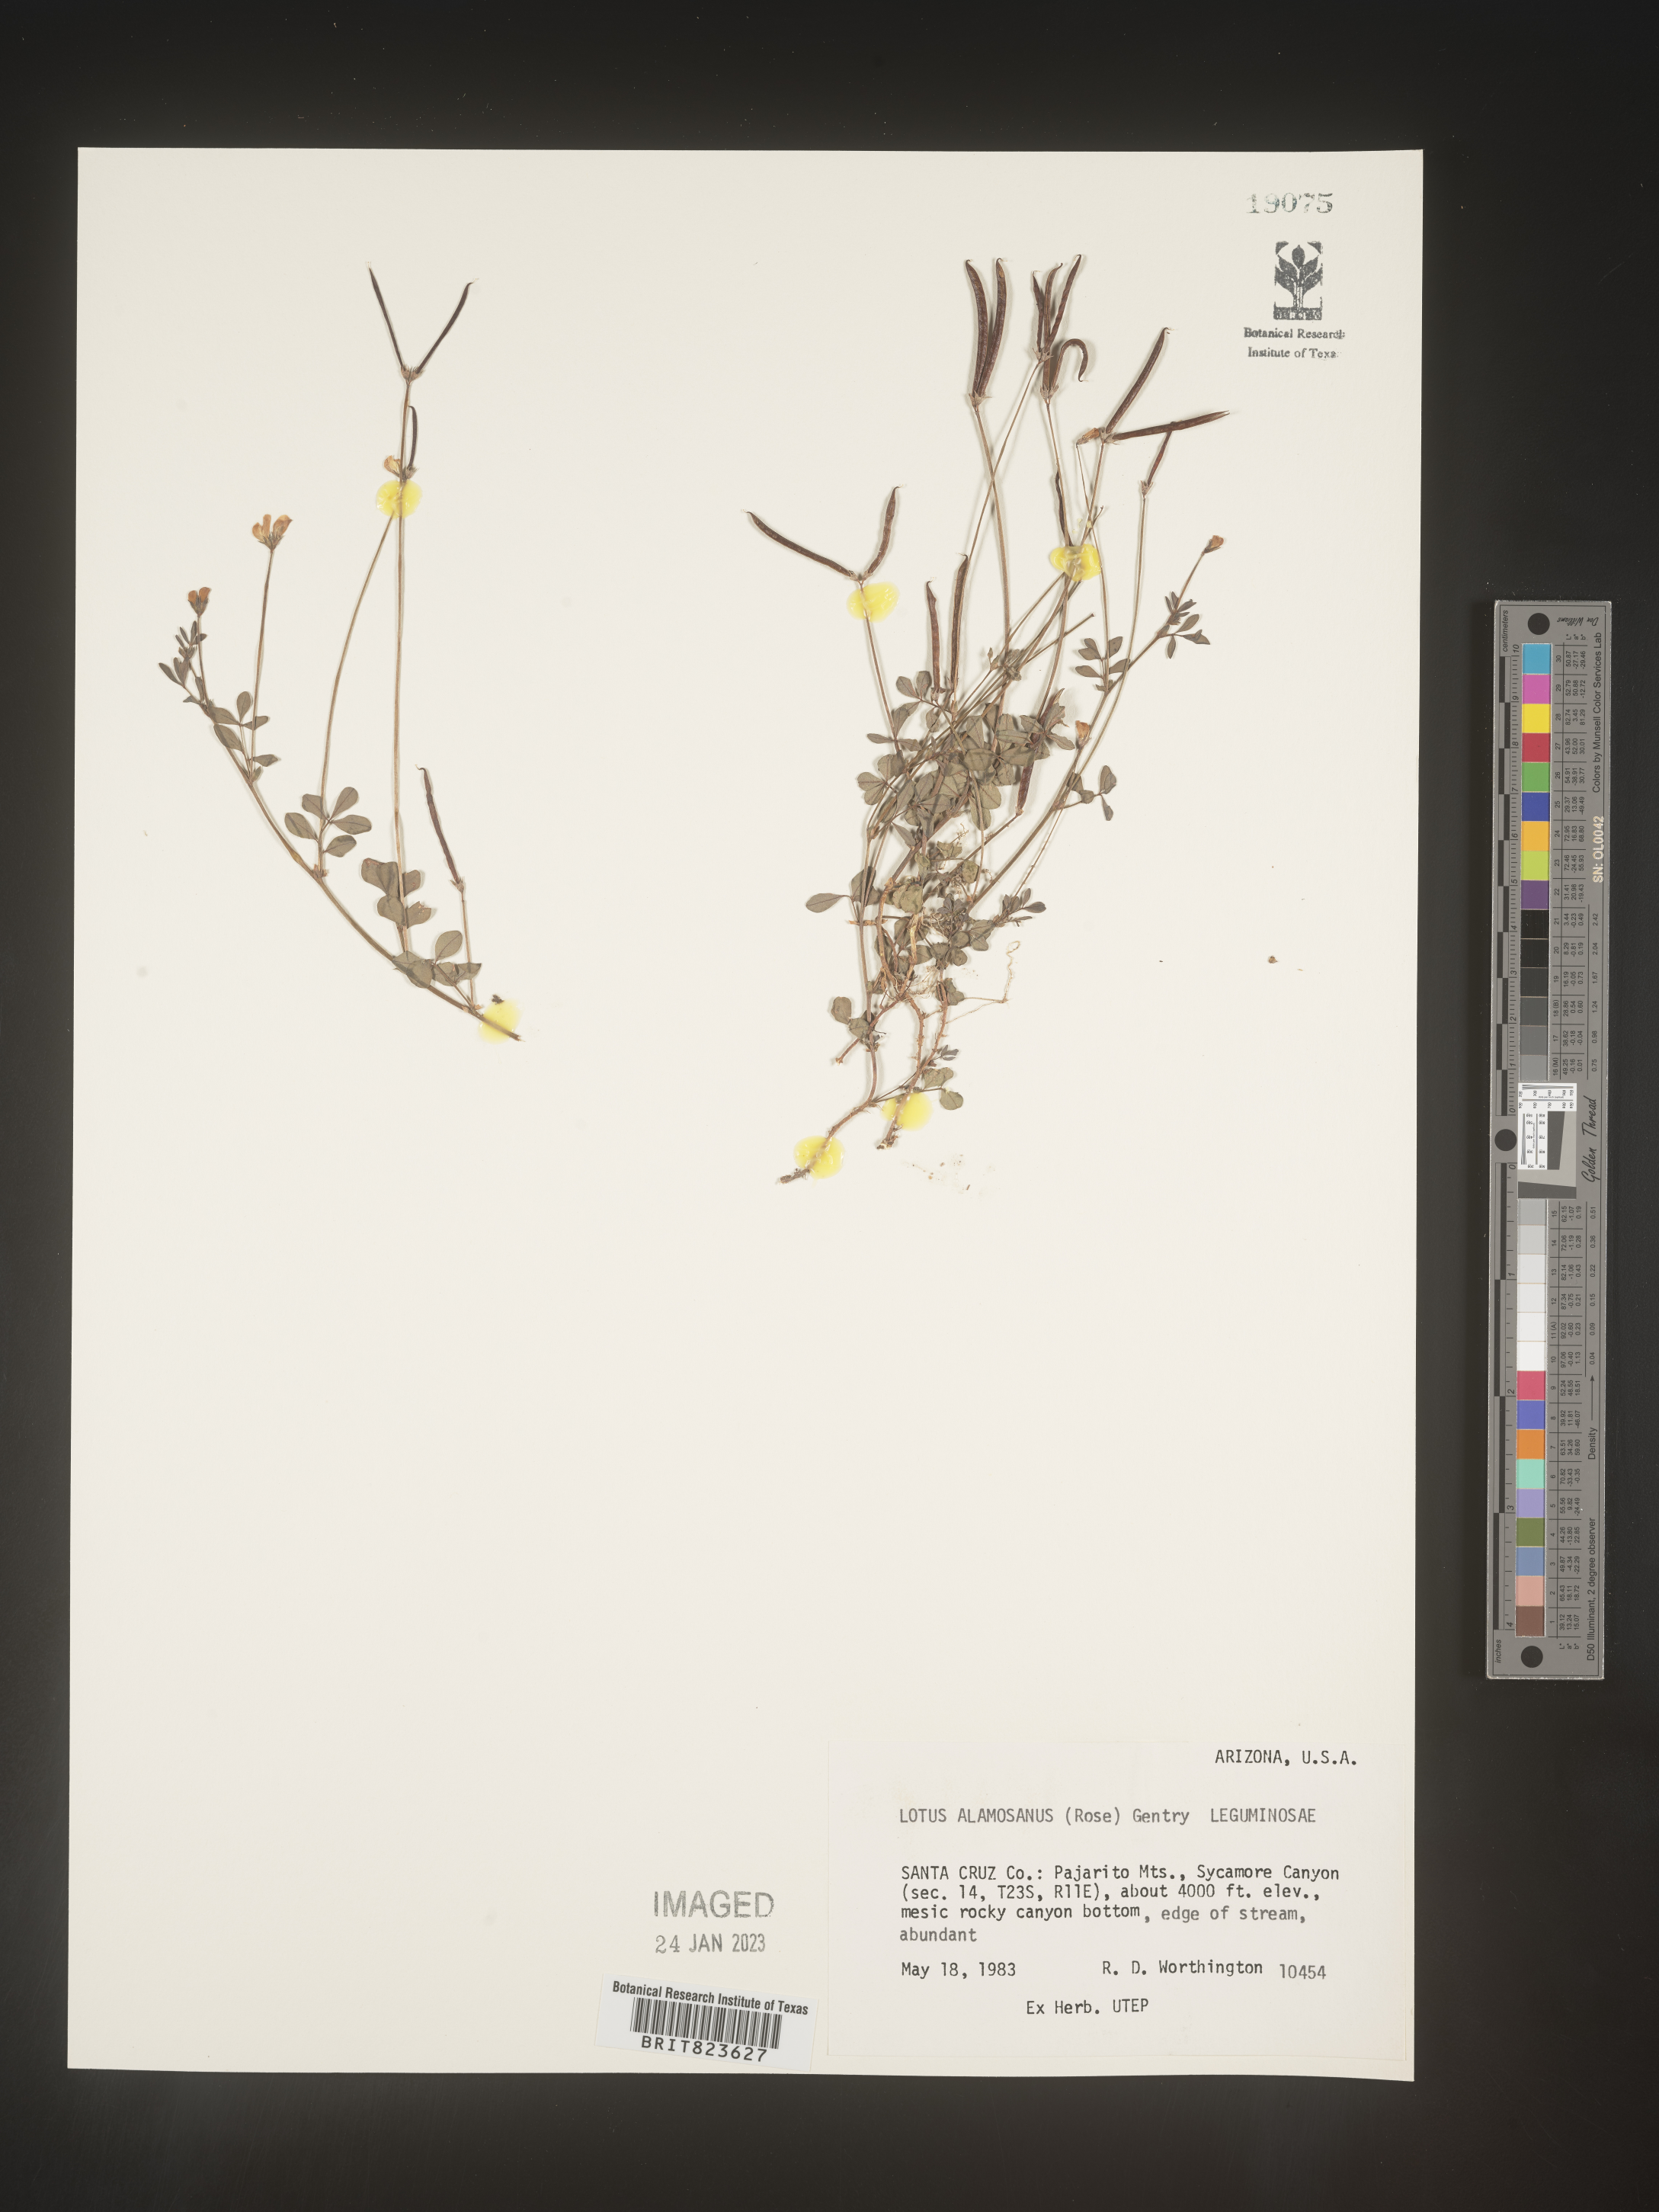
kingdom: Plantae
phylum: Tracheophyta
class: Magnoliopsida
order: Fabales
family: Fabaceae
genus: Lotus
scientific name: Lotus
